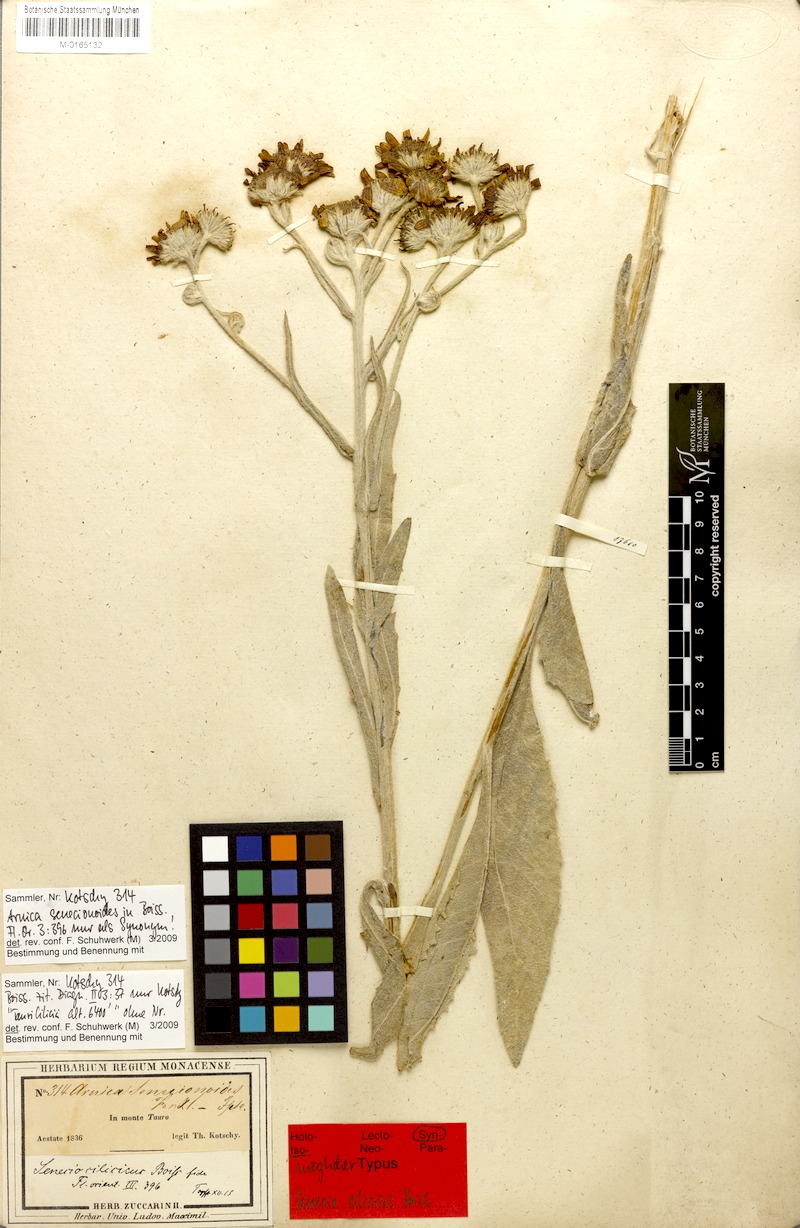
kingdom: Plantae
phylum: Tracheophyta
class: Magnoliopsida
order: Asterales
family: Asteraceae
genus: Jacobaea
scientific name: Jacobaea cilicia
